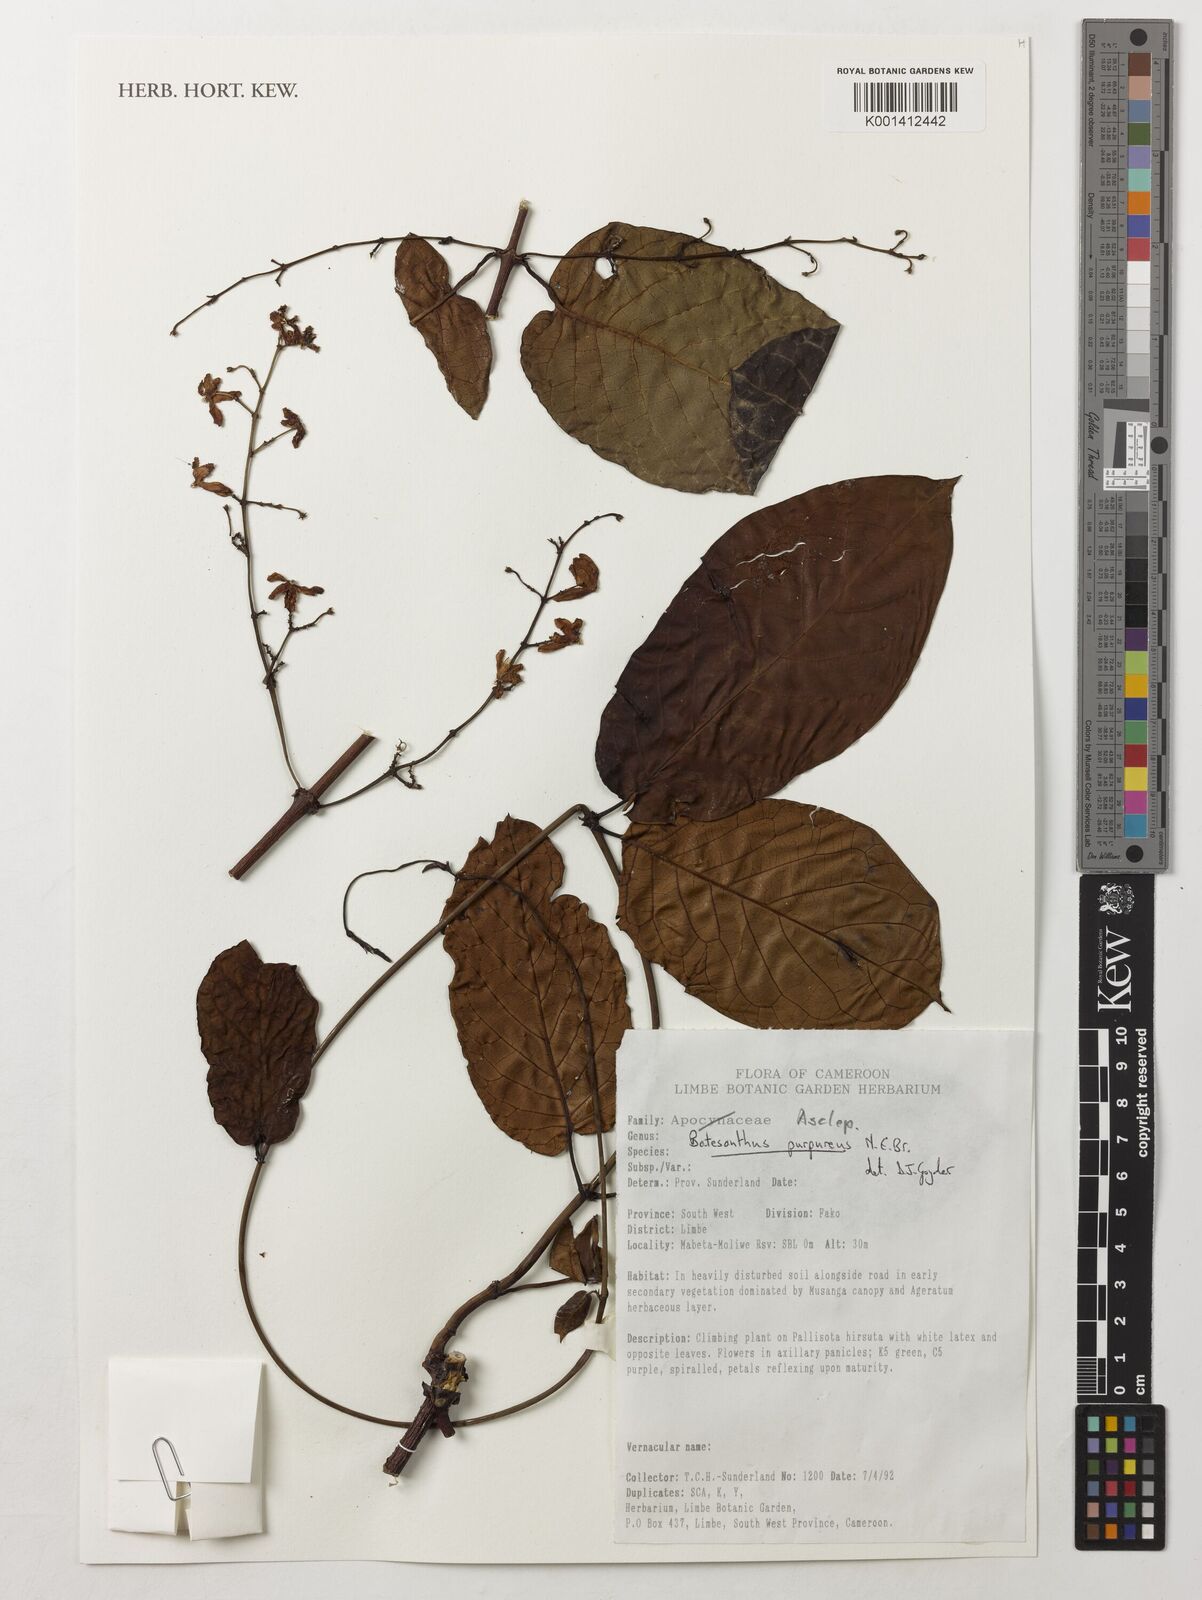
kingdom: Plantae
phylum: Tracheophyta
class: Magnoliopsida
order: Gentianales
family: Apocynaceae
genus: Batesanthus
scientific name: Batesanthus purpureus
